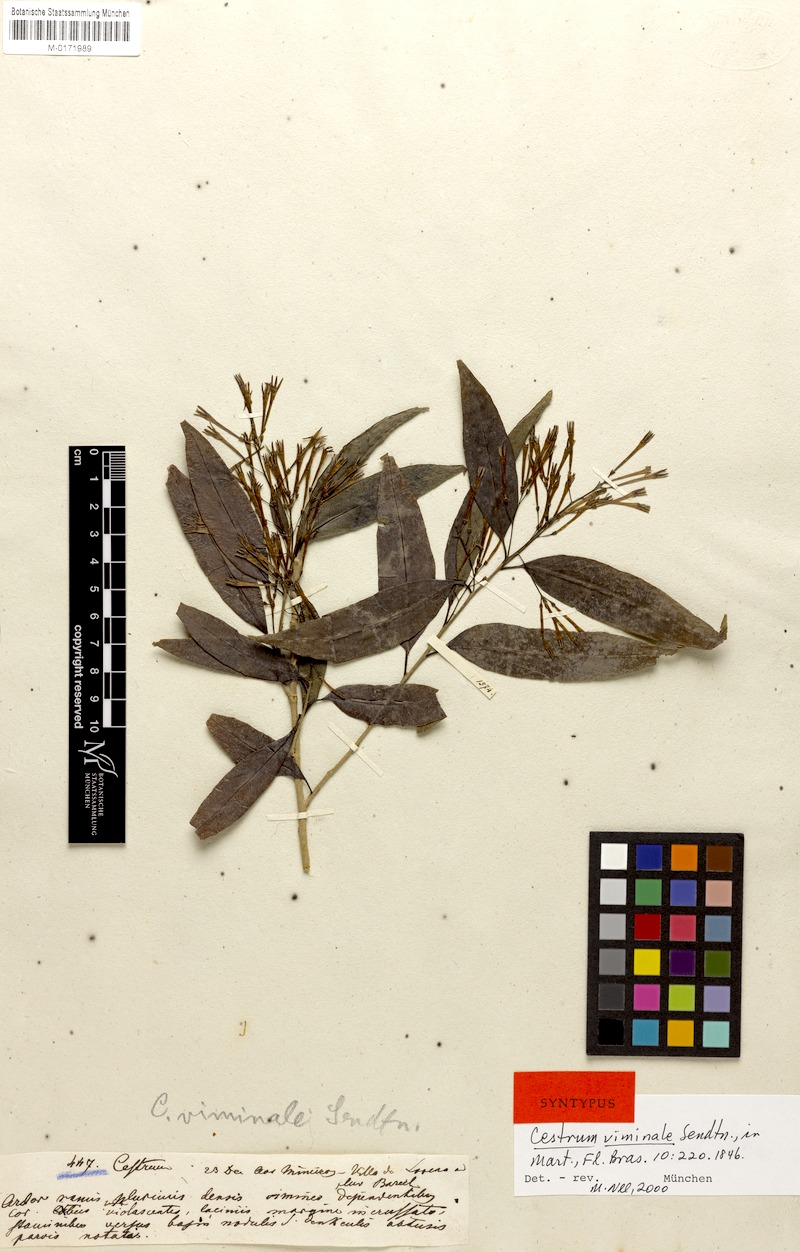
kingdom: Plantae
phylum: Tracheophyta
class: Magnoliopsida
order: Solanales
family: Solanaceae
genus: Cestrum
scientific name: Cestrum montanum
